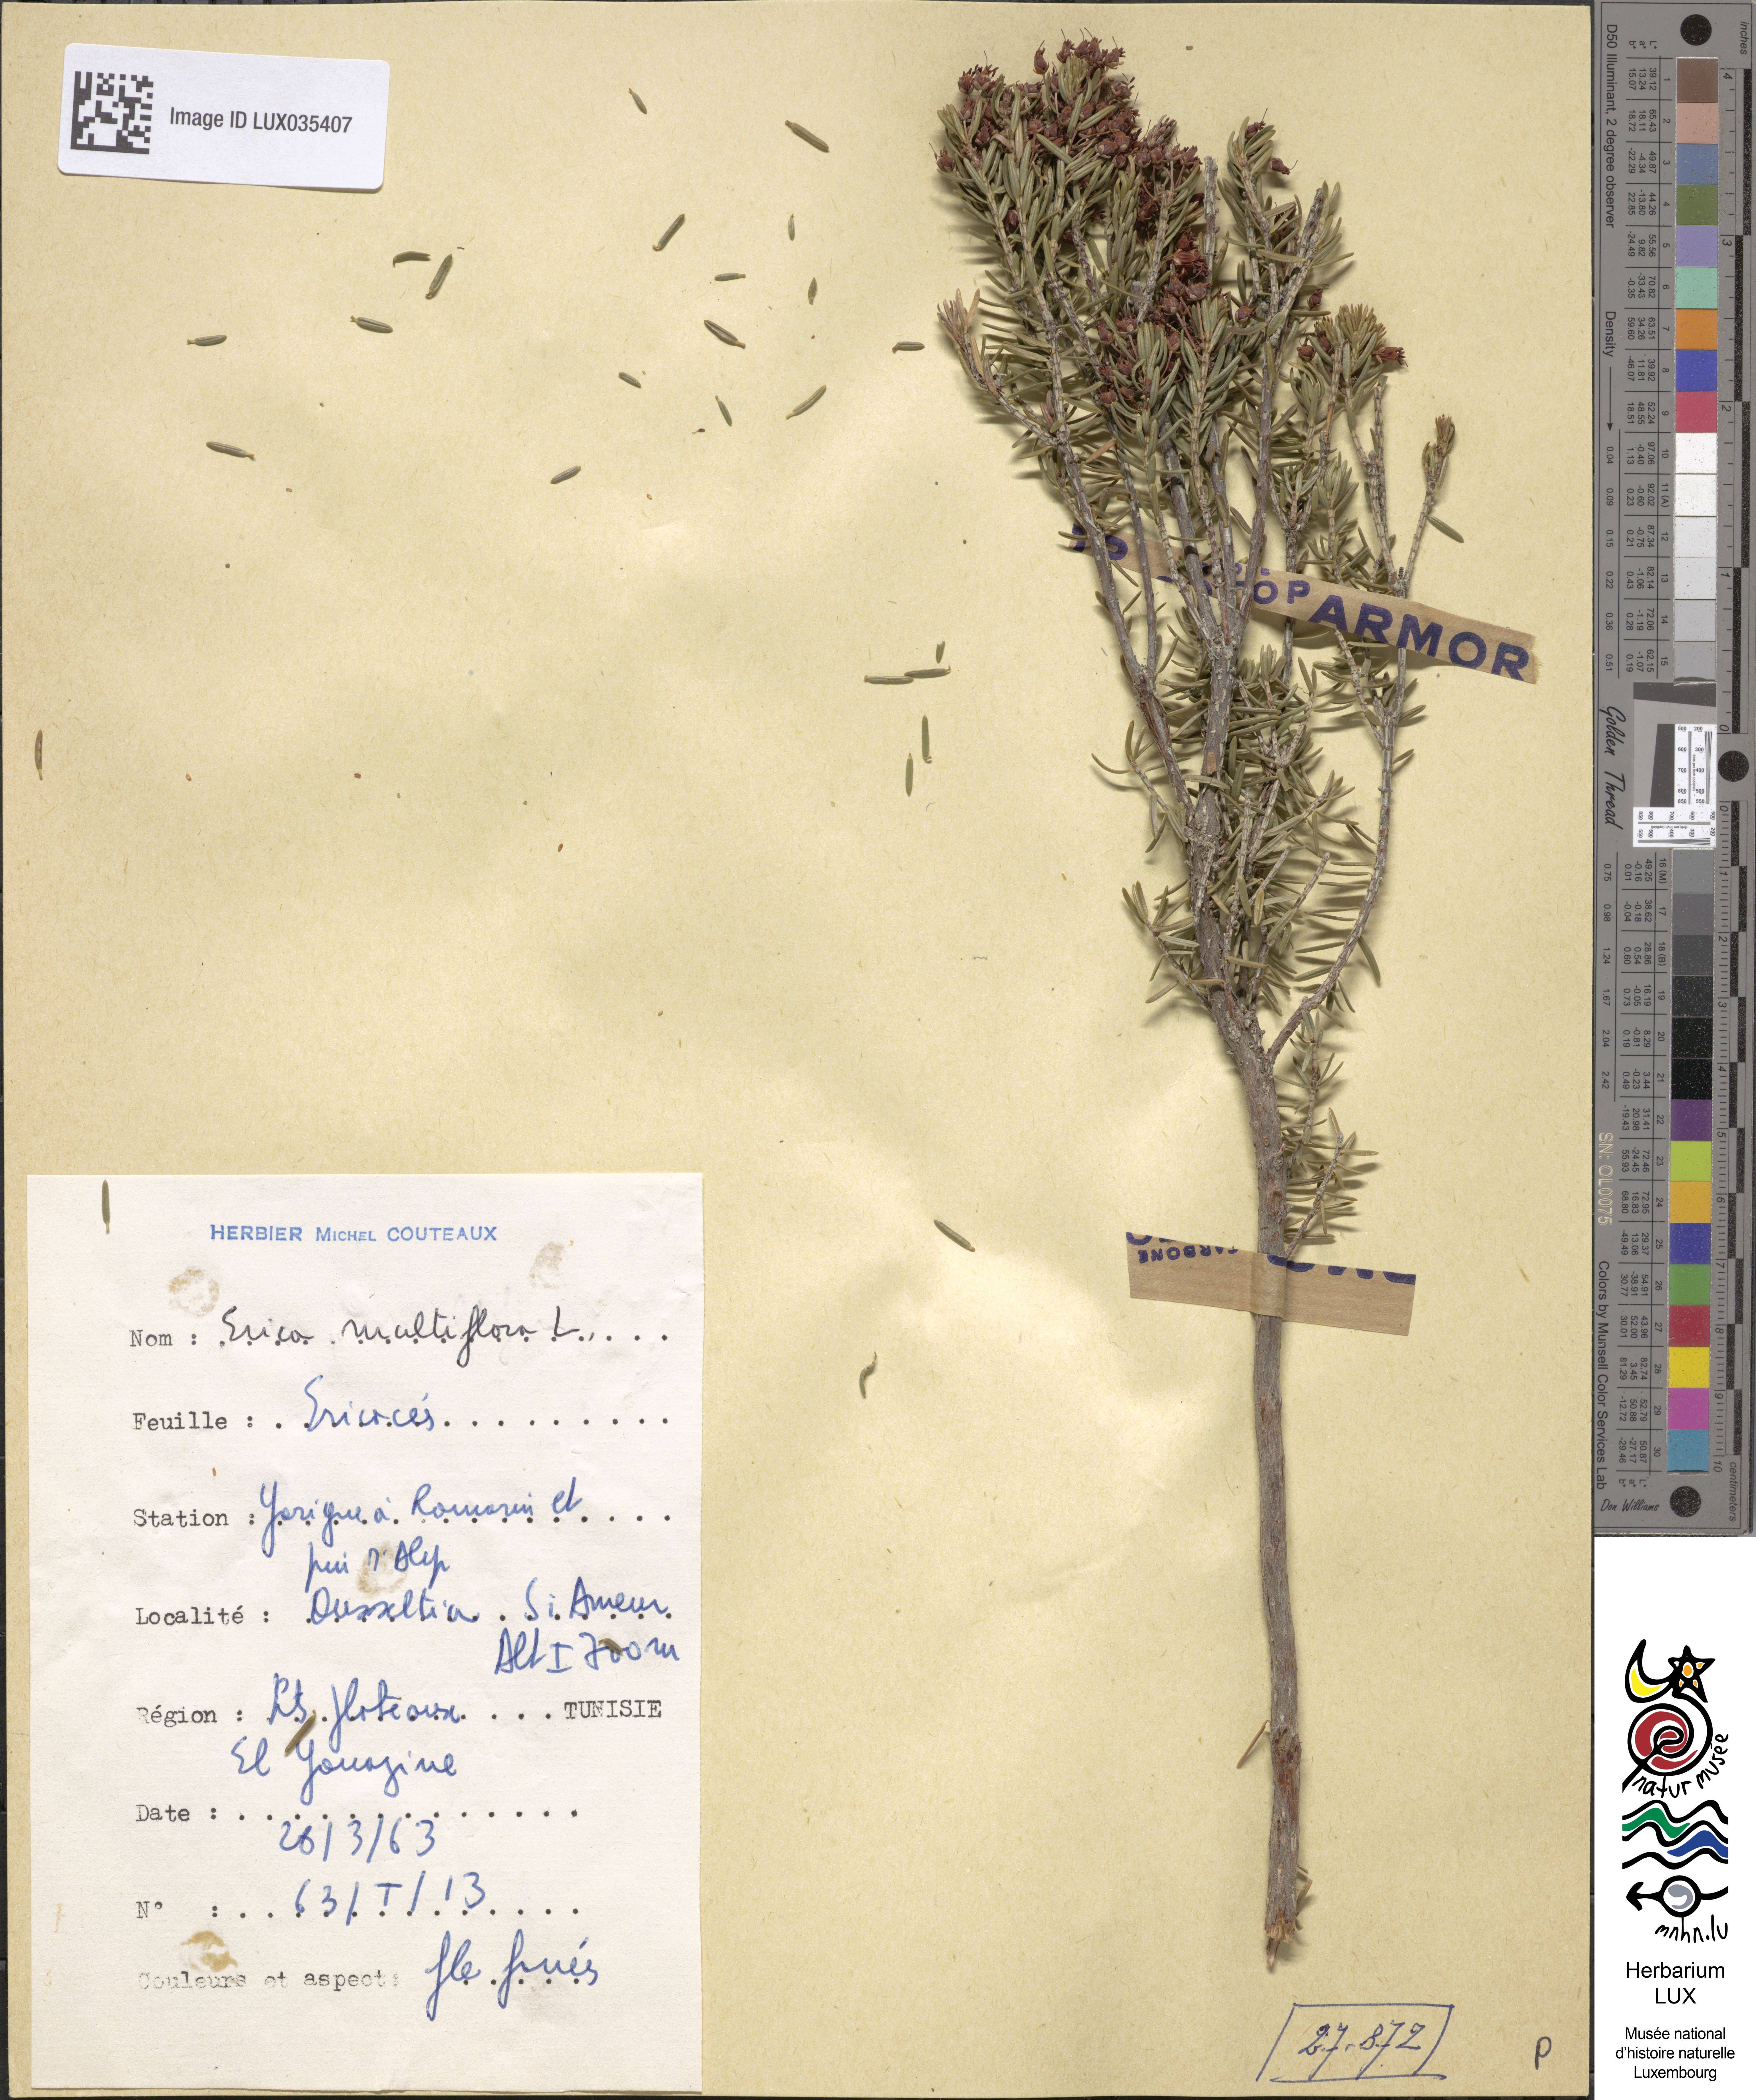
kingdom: Plantae
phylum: Tracheophyta
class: Magnoliopsida
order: Ericales
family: Ericaceae
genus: Erica
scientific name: Erica multiflora
